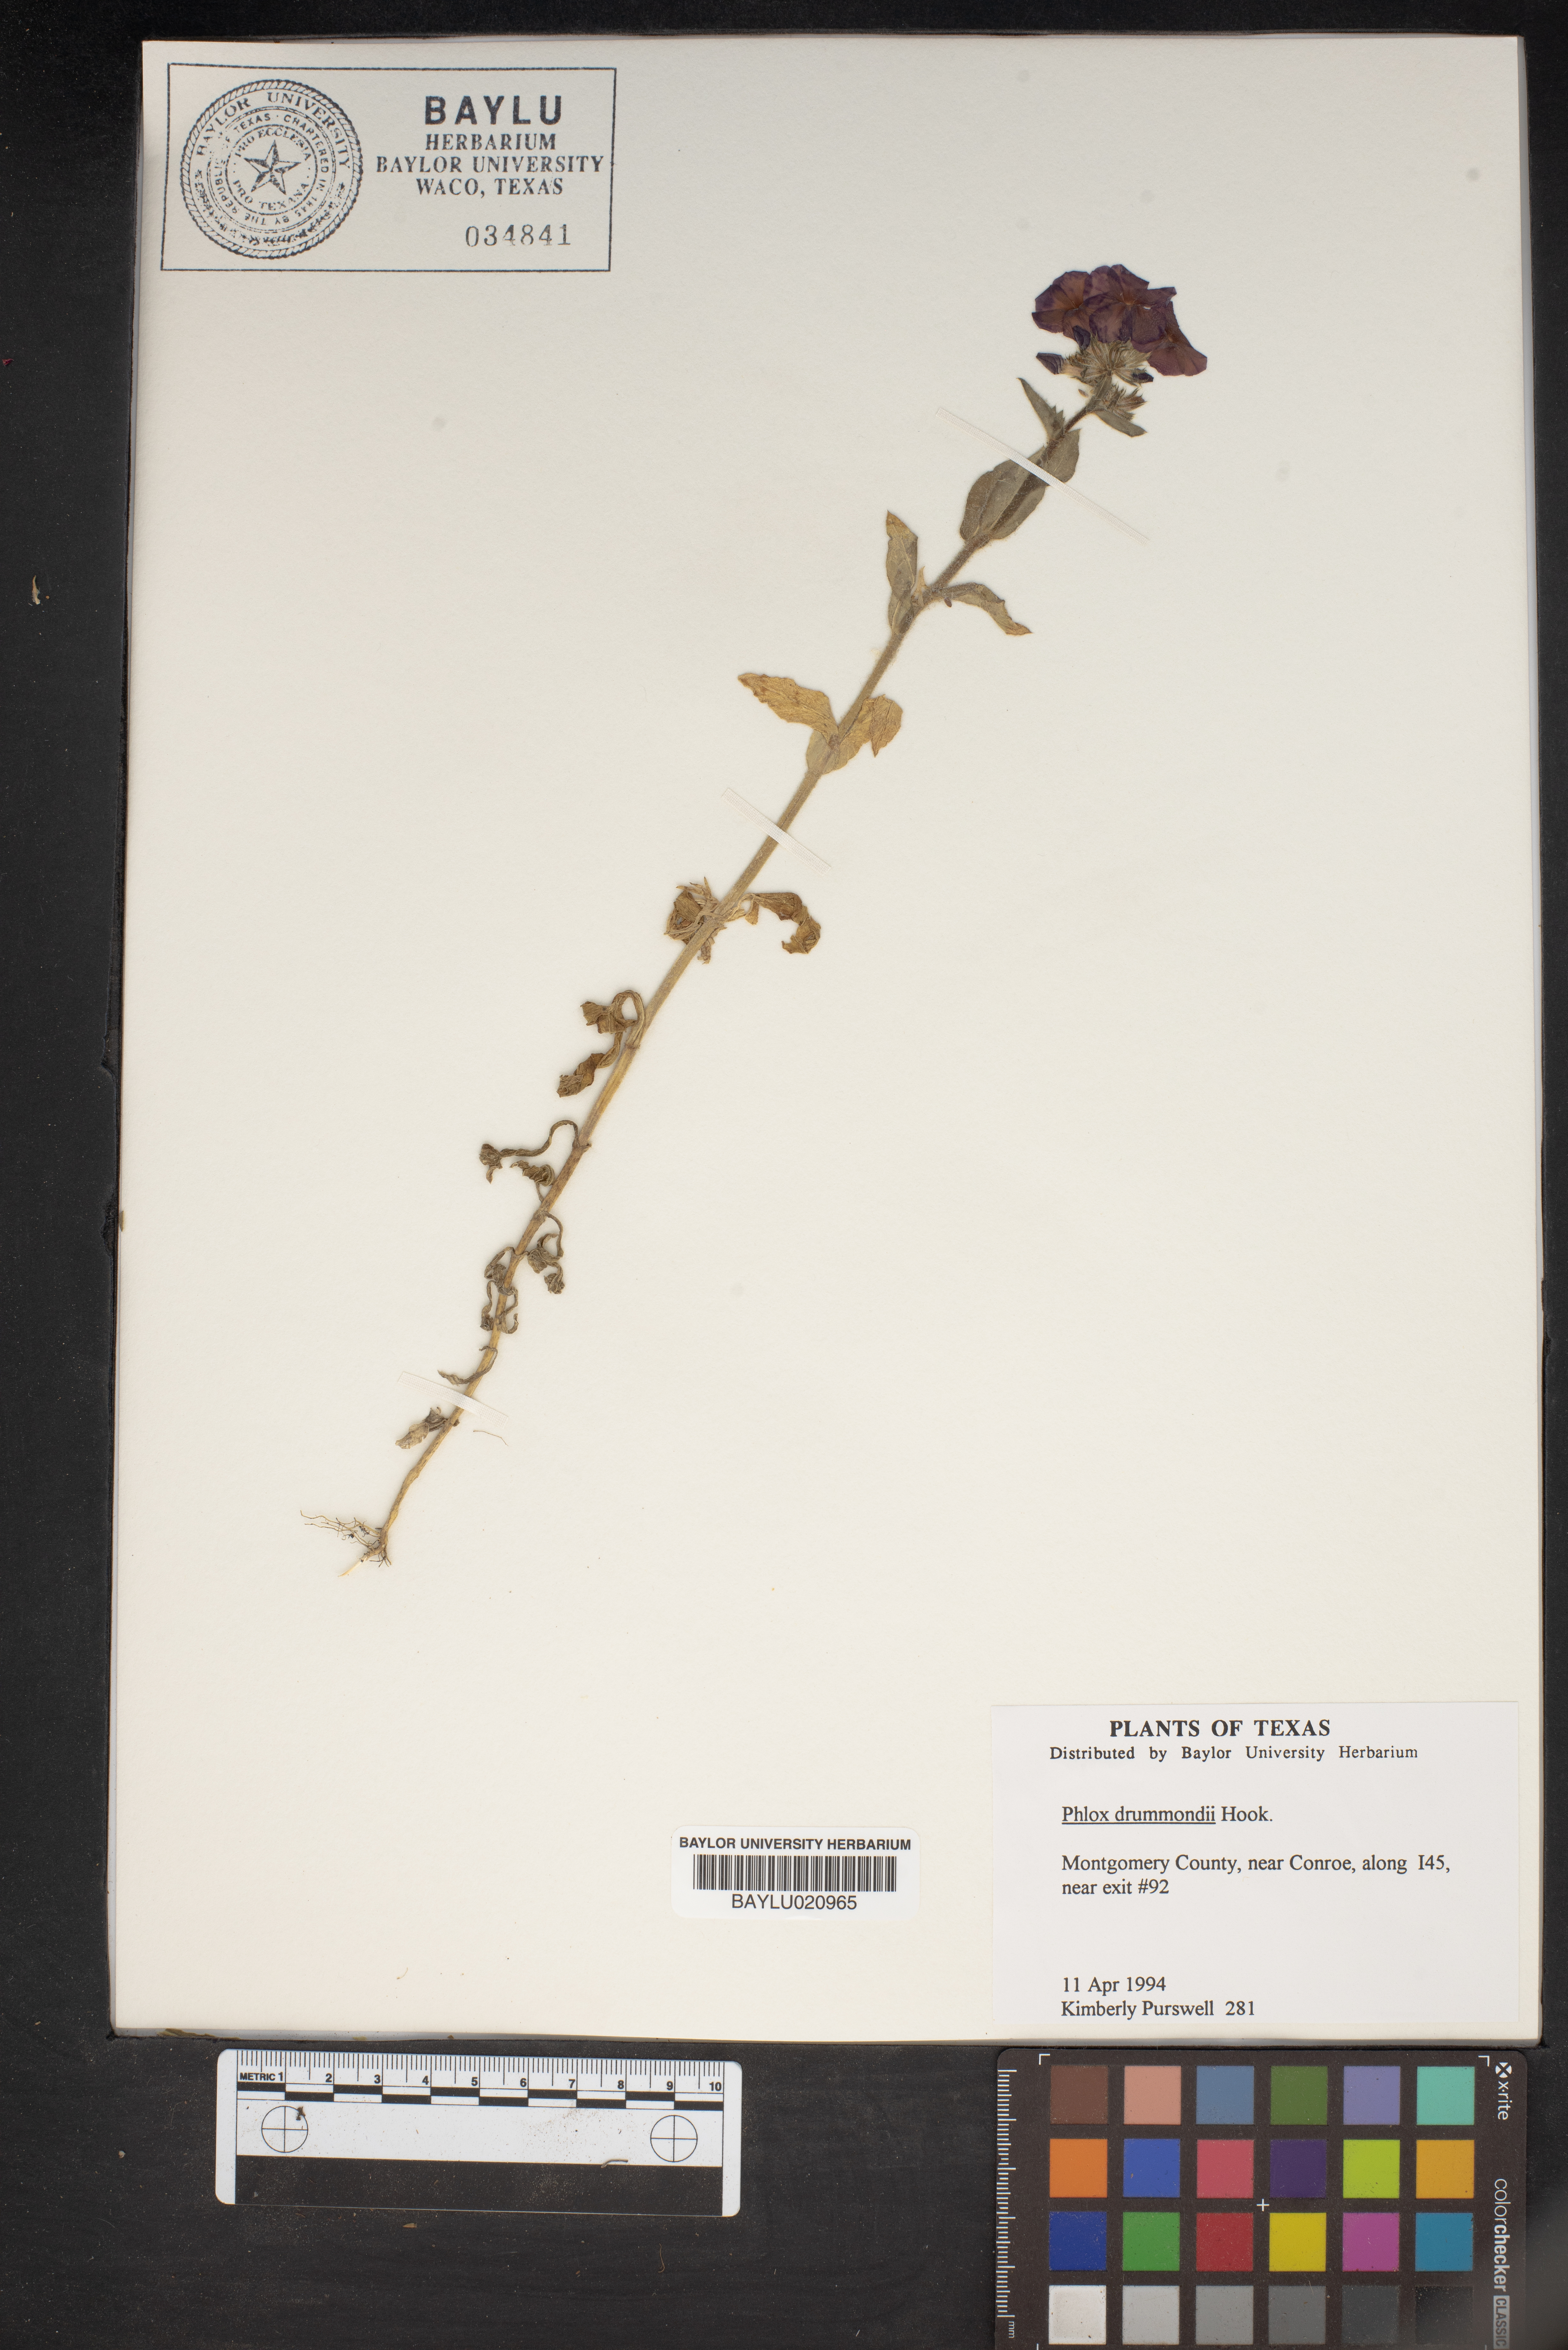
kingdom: Plantae
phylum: Tracheophyta
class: Magnoliopsida
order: Ericales
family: Polemoniaceae
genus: Phlox
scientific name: Phlox drummondii
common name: Drummond's phlox
